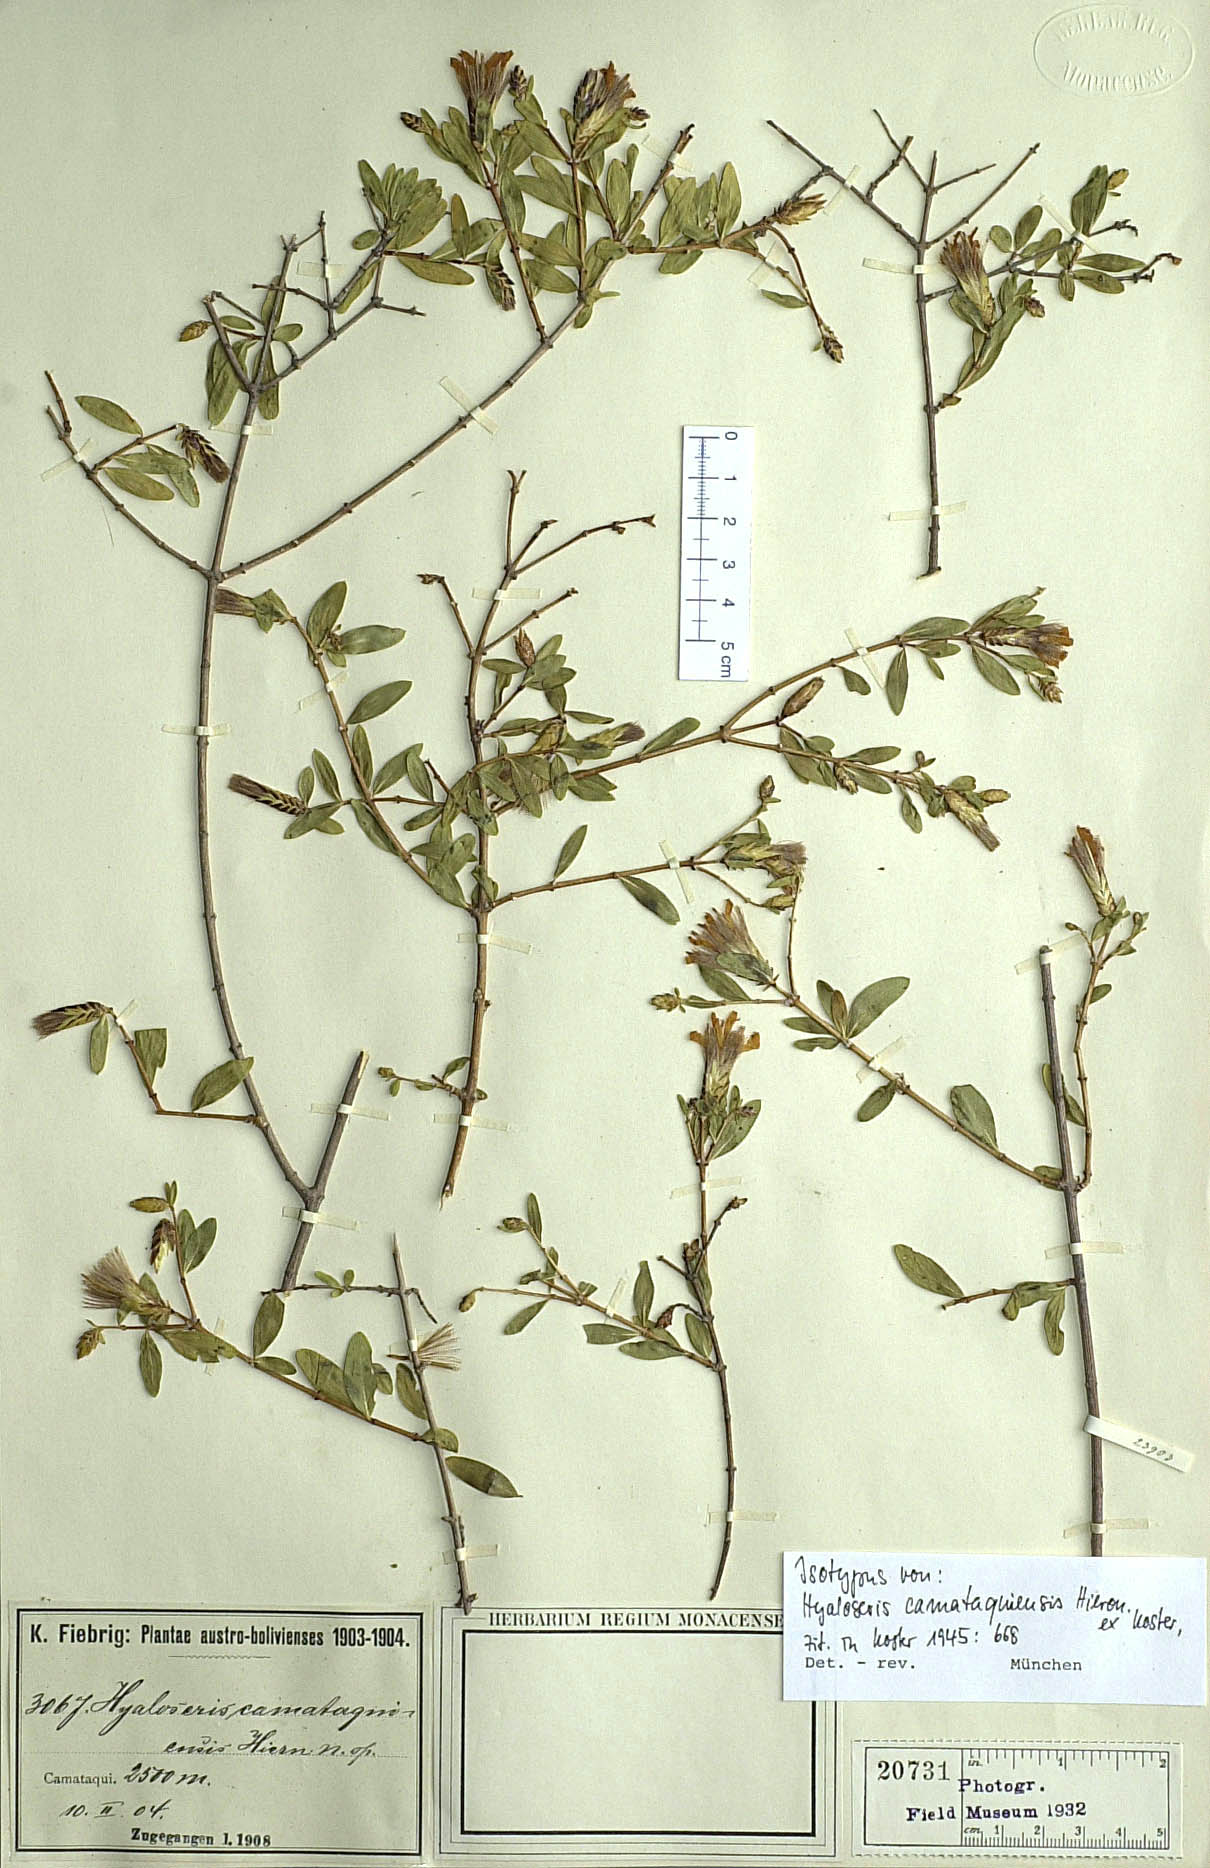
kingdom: Plantae
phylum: Tracheophyta
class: Magnoliopsida
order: Asterales
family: Asteraceae
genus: Hyaloseris
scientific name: Hyaloseris catamaquiensis
